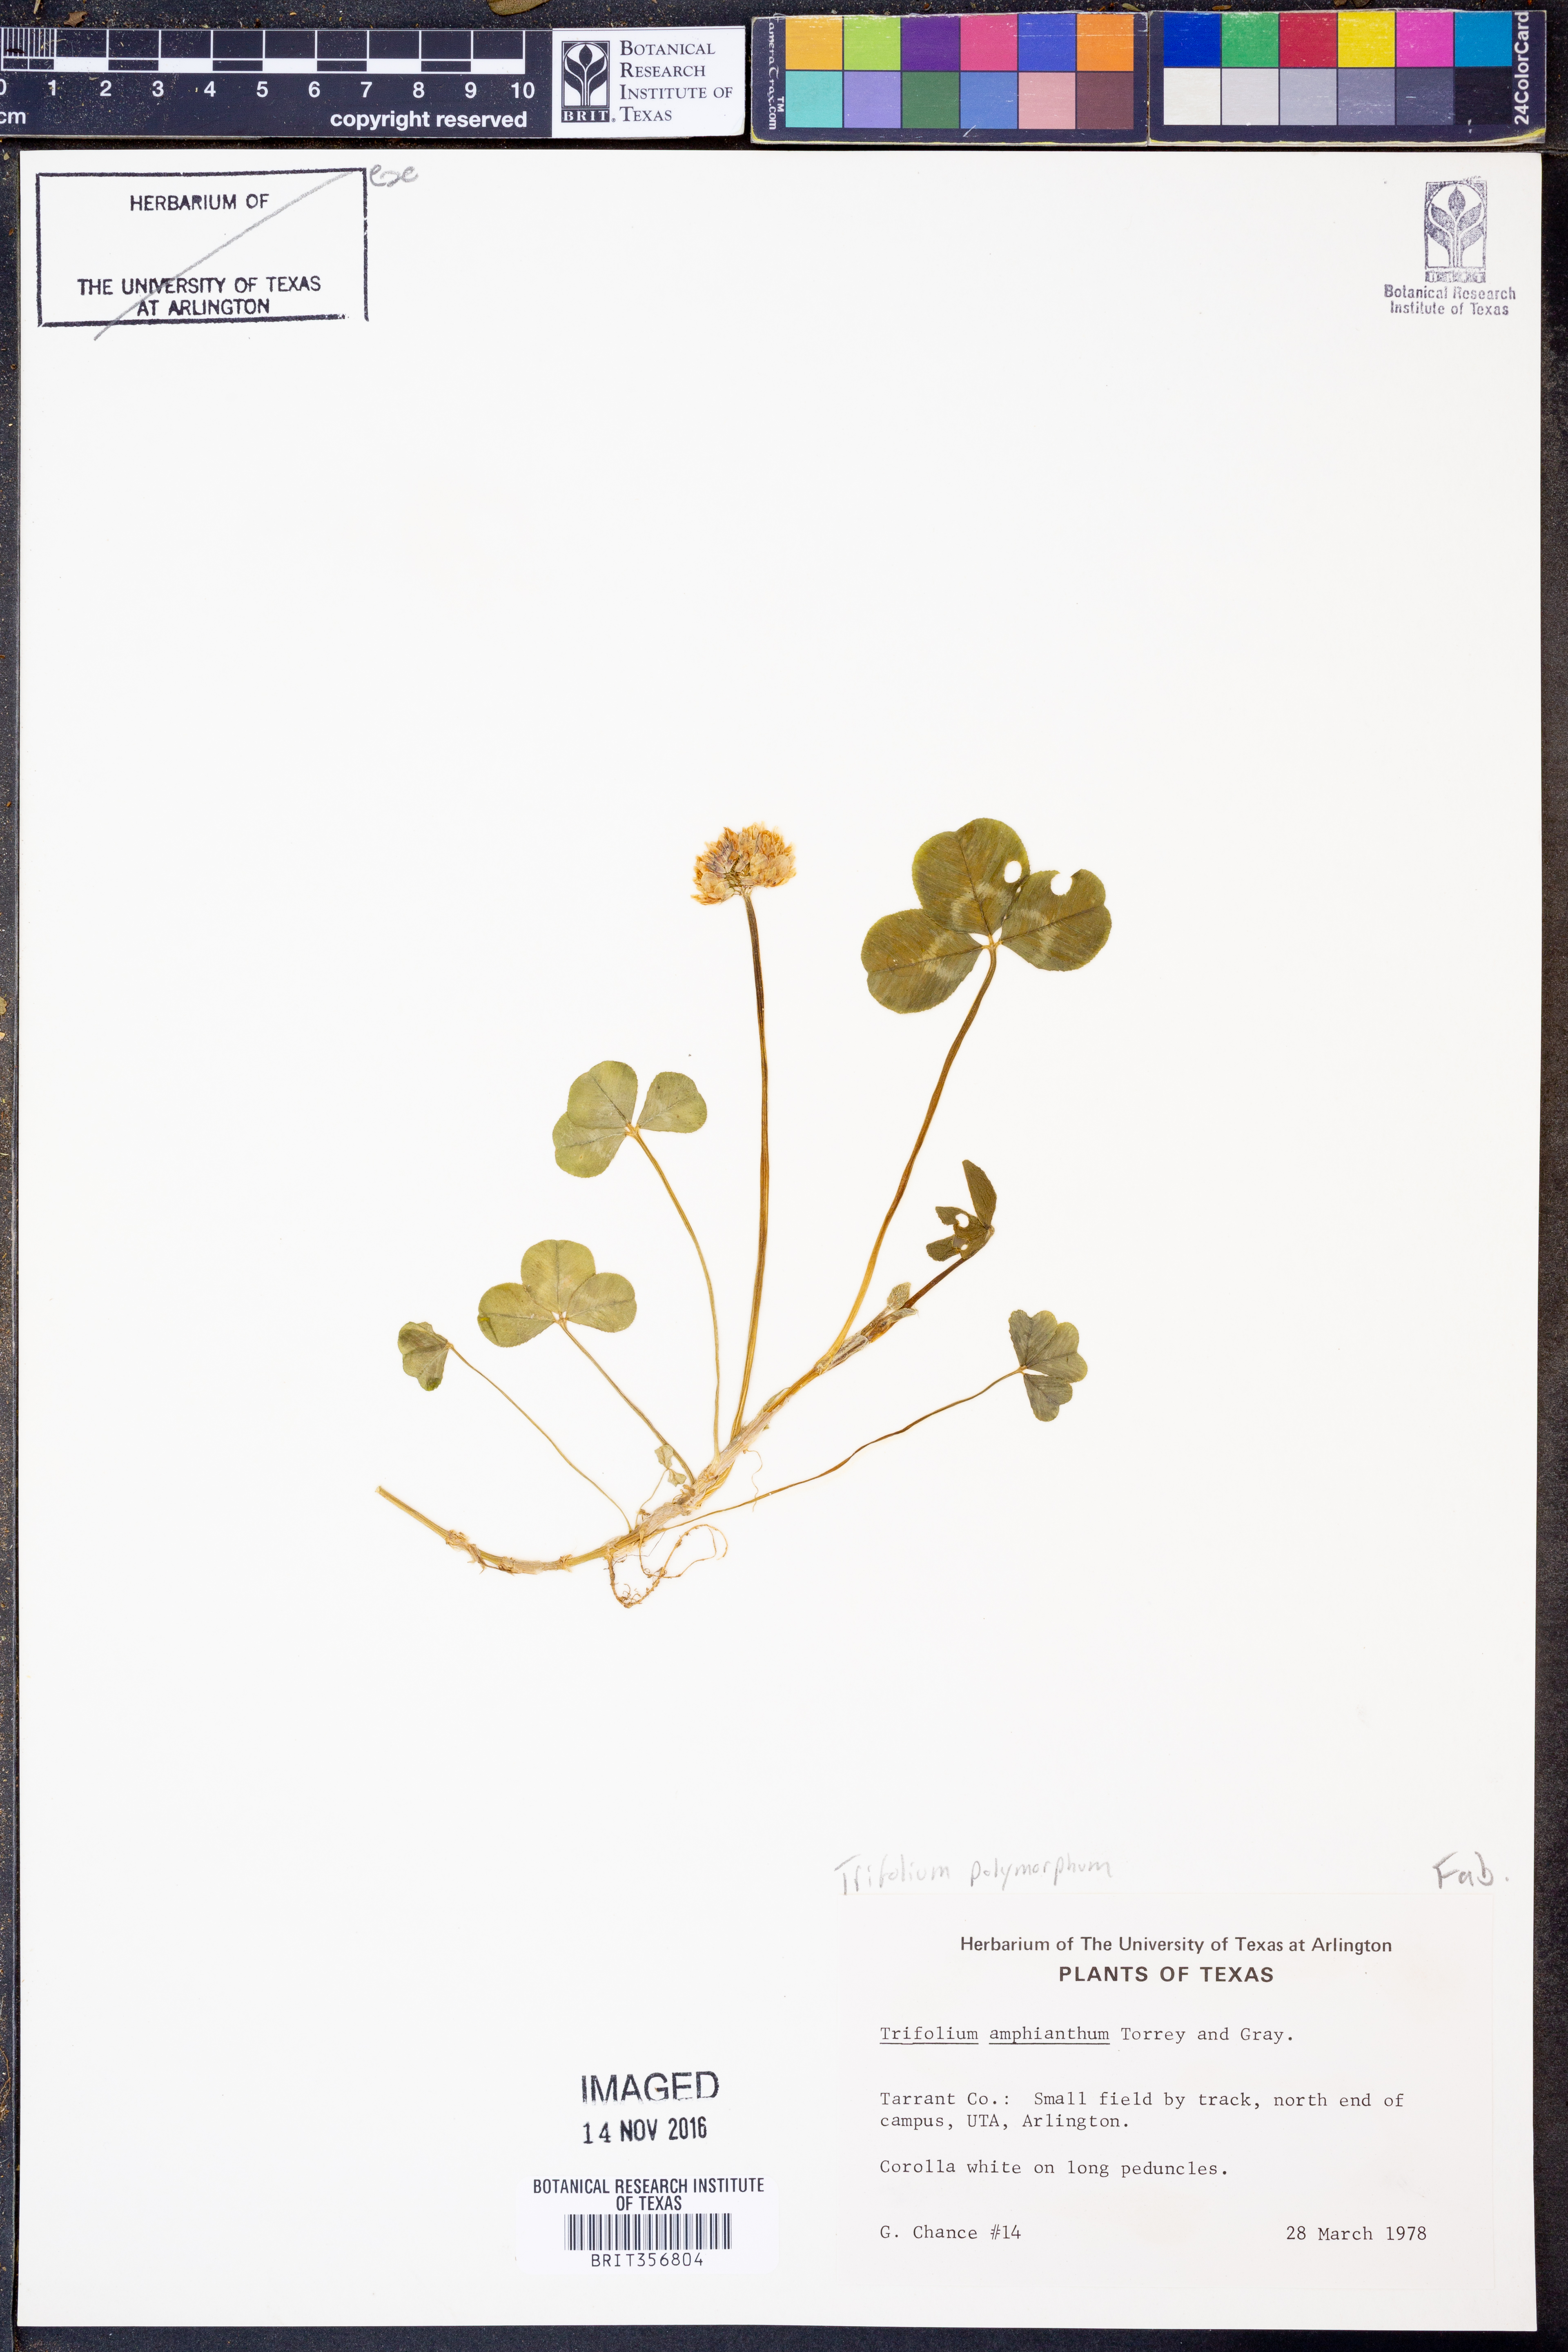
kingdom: Plantae
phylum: Tracheophyta
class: Magnoliopsida
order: Fabales
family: Fabaceae
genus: Trifolium
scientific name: Trifolium polymorphum
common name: Peanut clover
